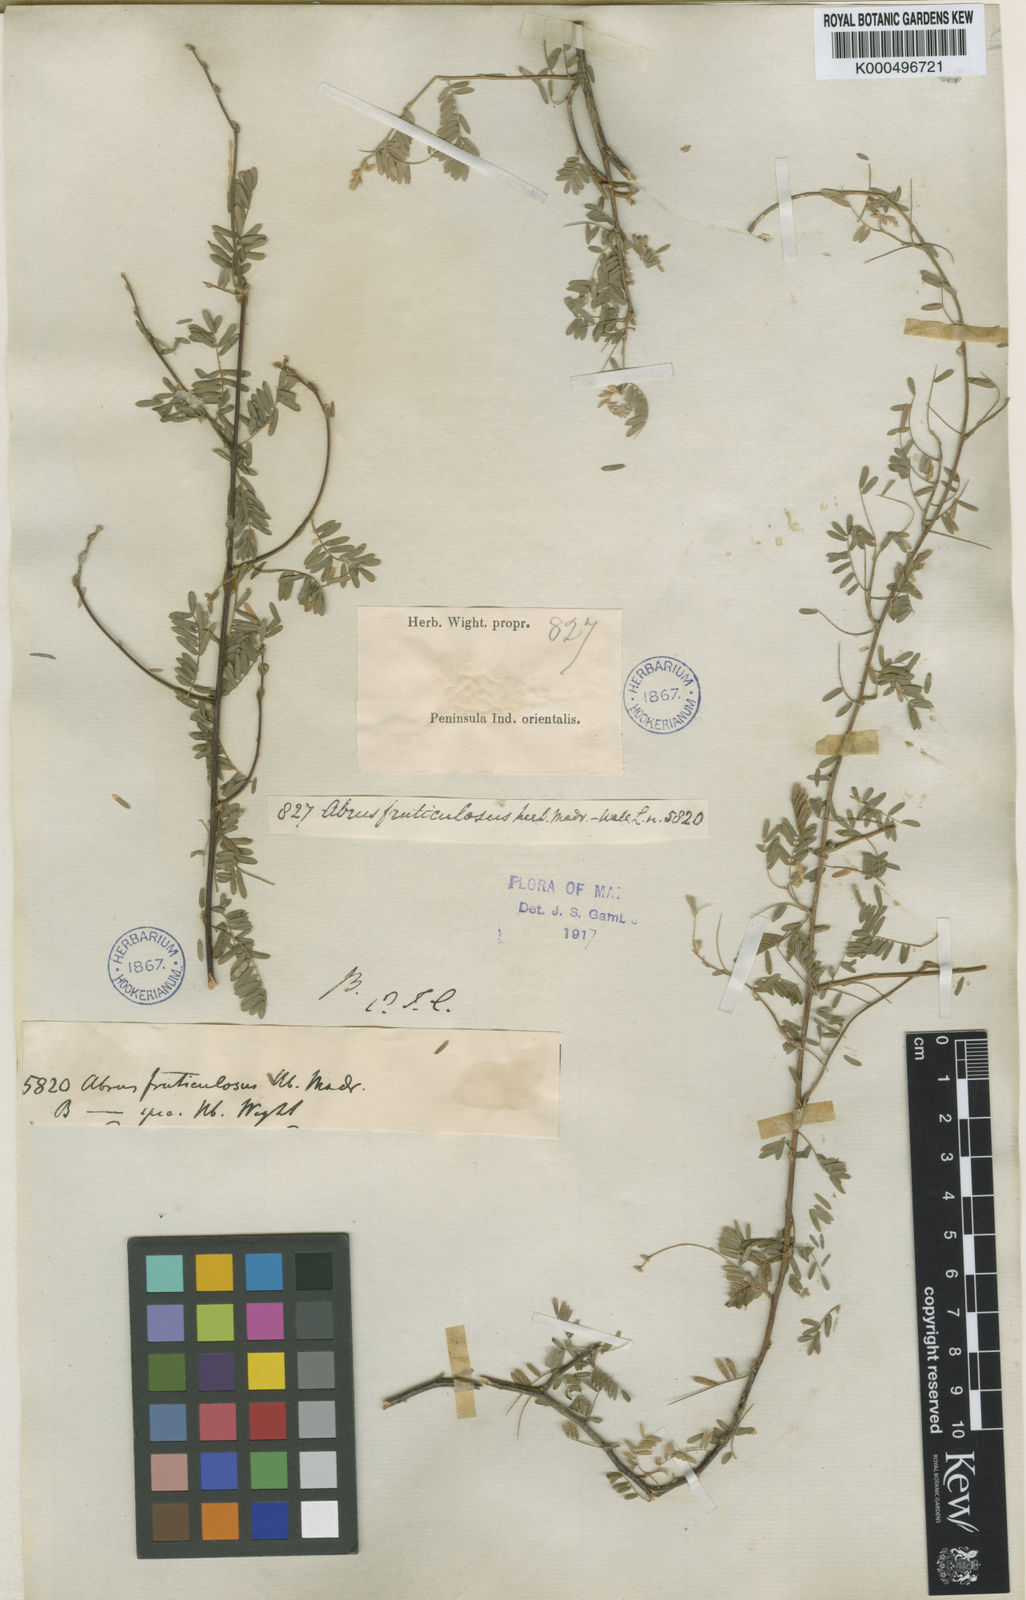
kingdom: Plantae
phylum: Tracheophyta
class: Magnoliopsida
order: Fabales
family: Fabaceae
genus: Abrus
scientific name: Abrus fruticulosus
